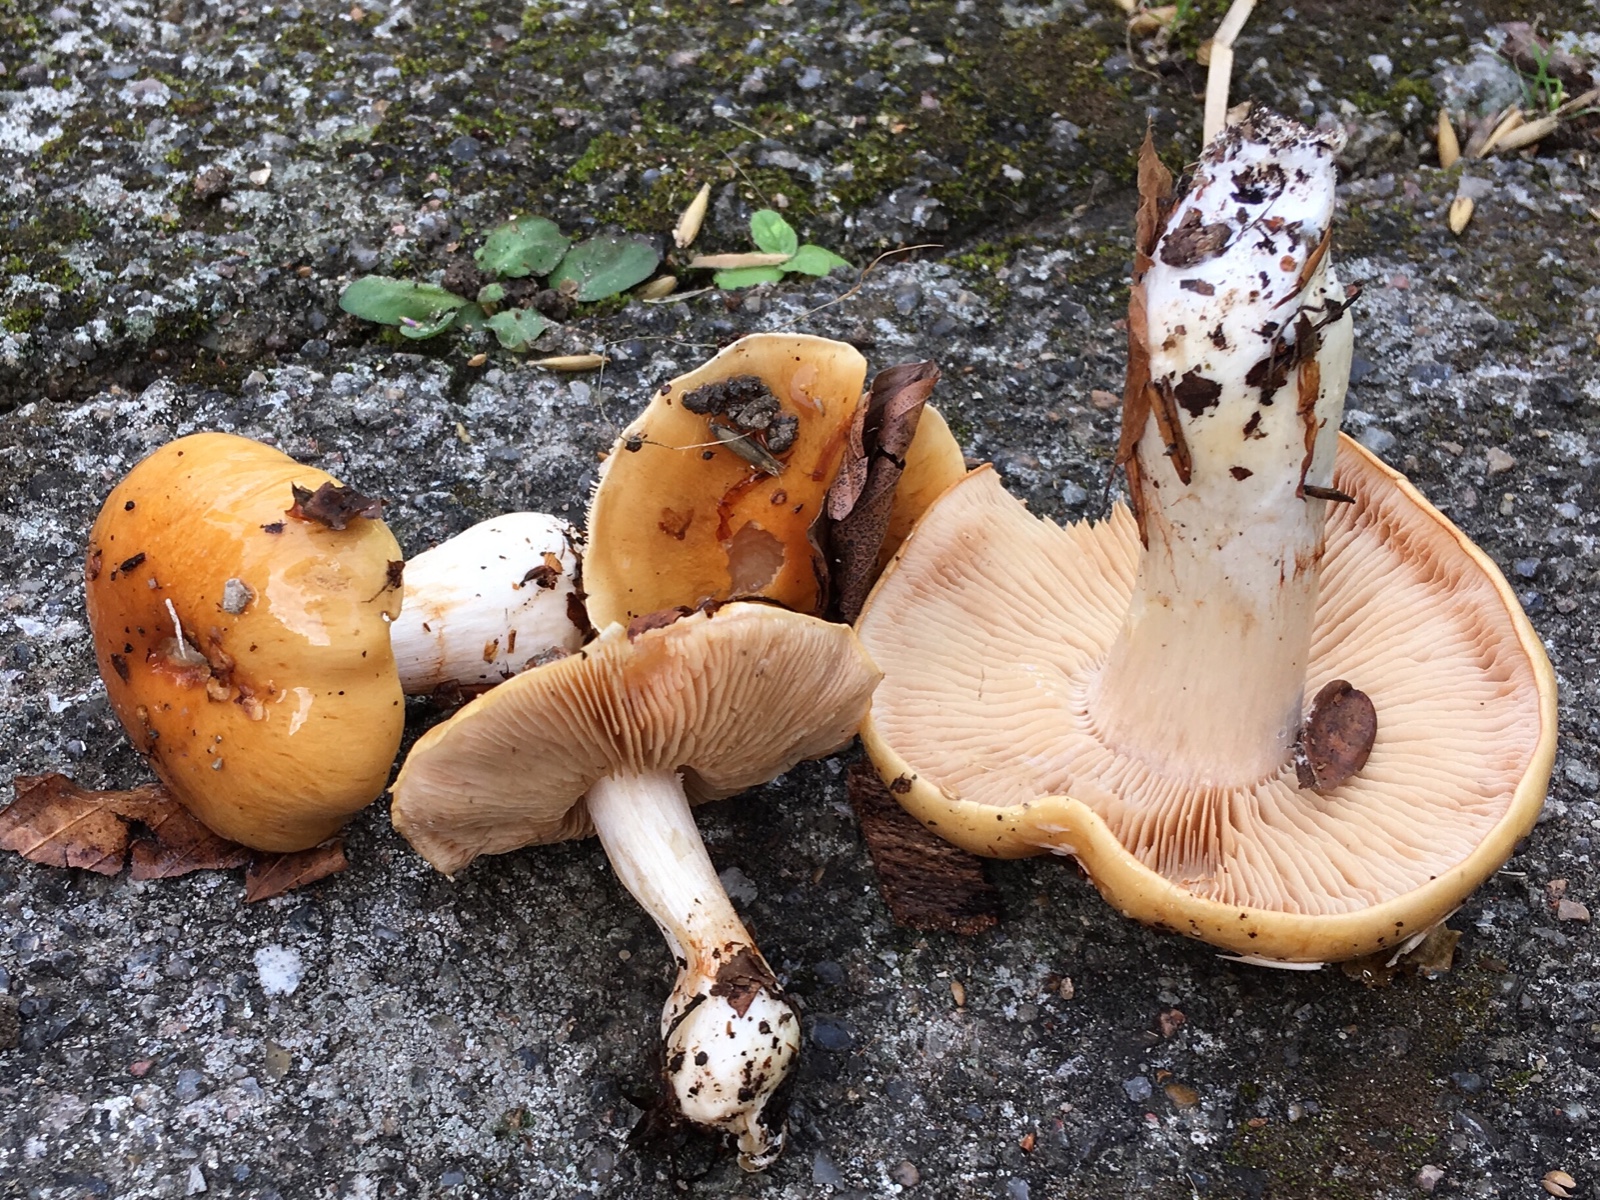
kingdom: Fungi
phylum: Basidiomycota
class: Agaricomycetes
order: Agaricales
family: Cortinariaceae
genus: Thaxterogaster
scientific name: Thaxterogaster emollitus
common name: besk slørhat
